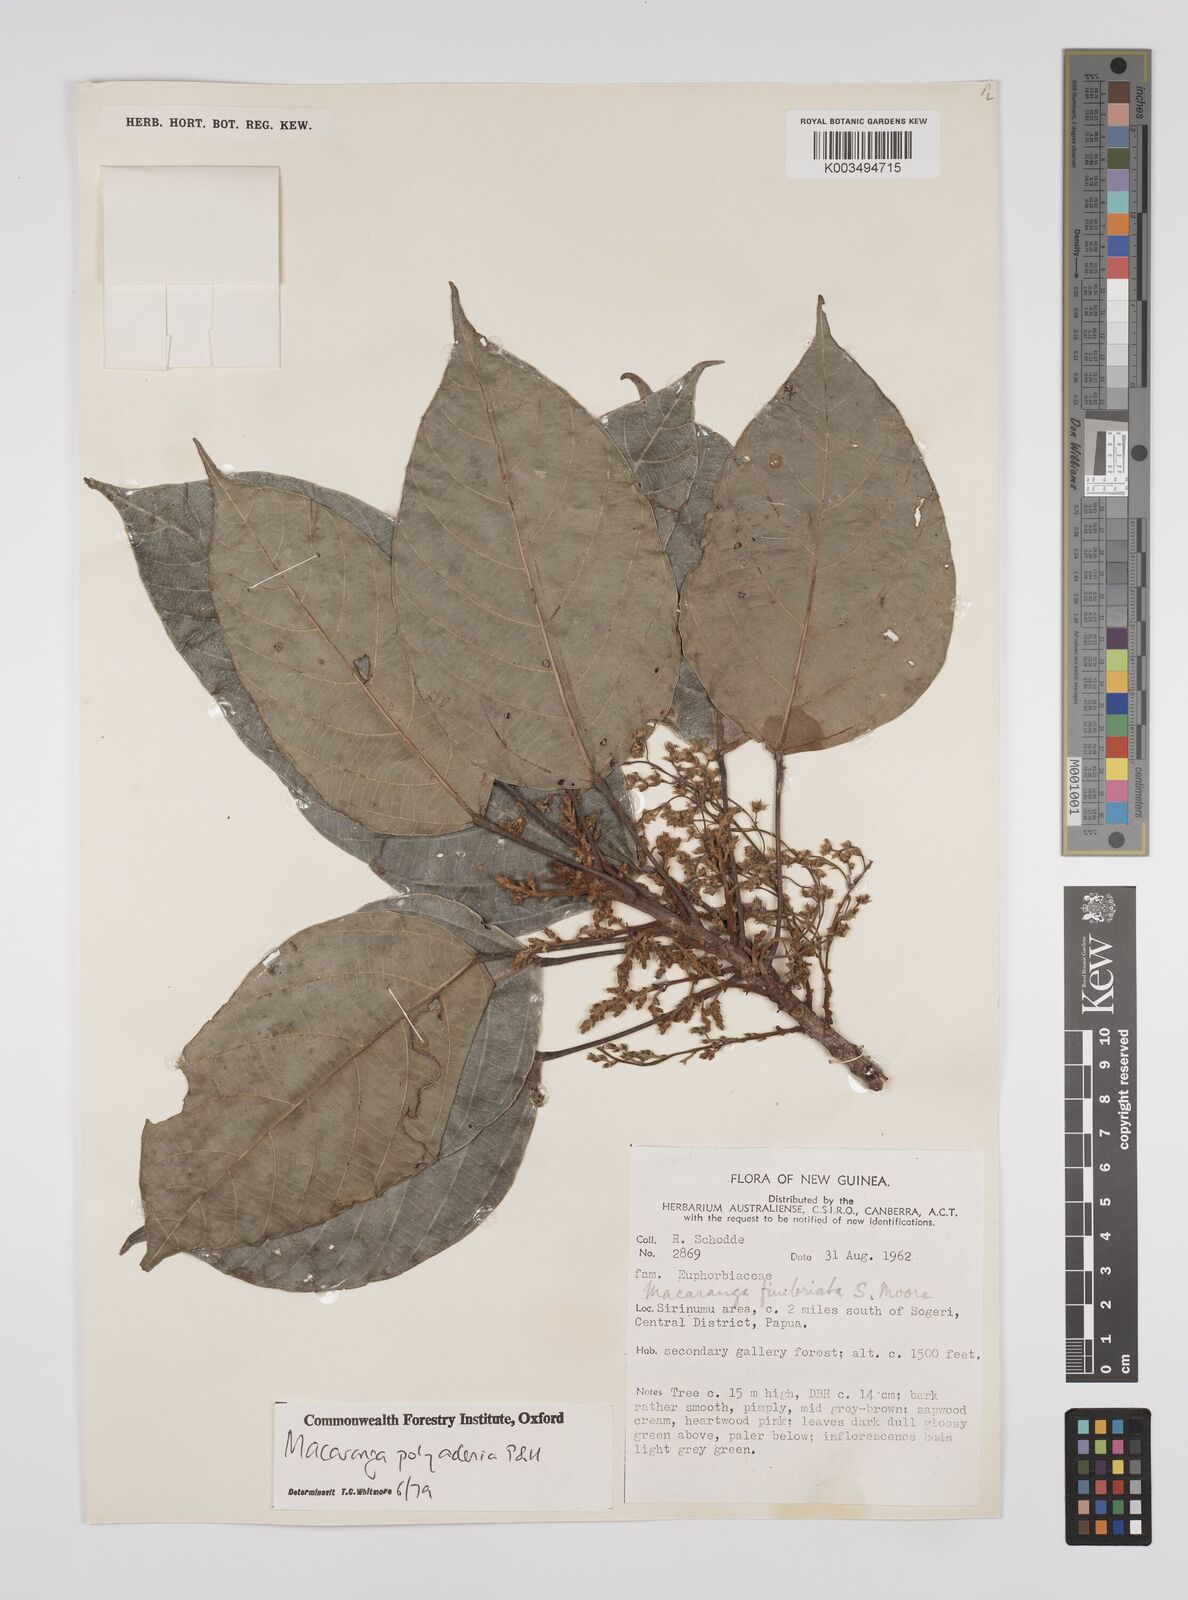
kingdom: Plantae
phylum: Tracheophyta
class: Magnoliopsida
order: Malpighiales
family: Euphorbiaceae
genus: Macaranga
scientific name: Macaranga polyadenia
